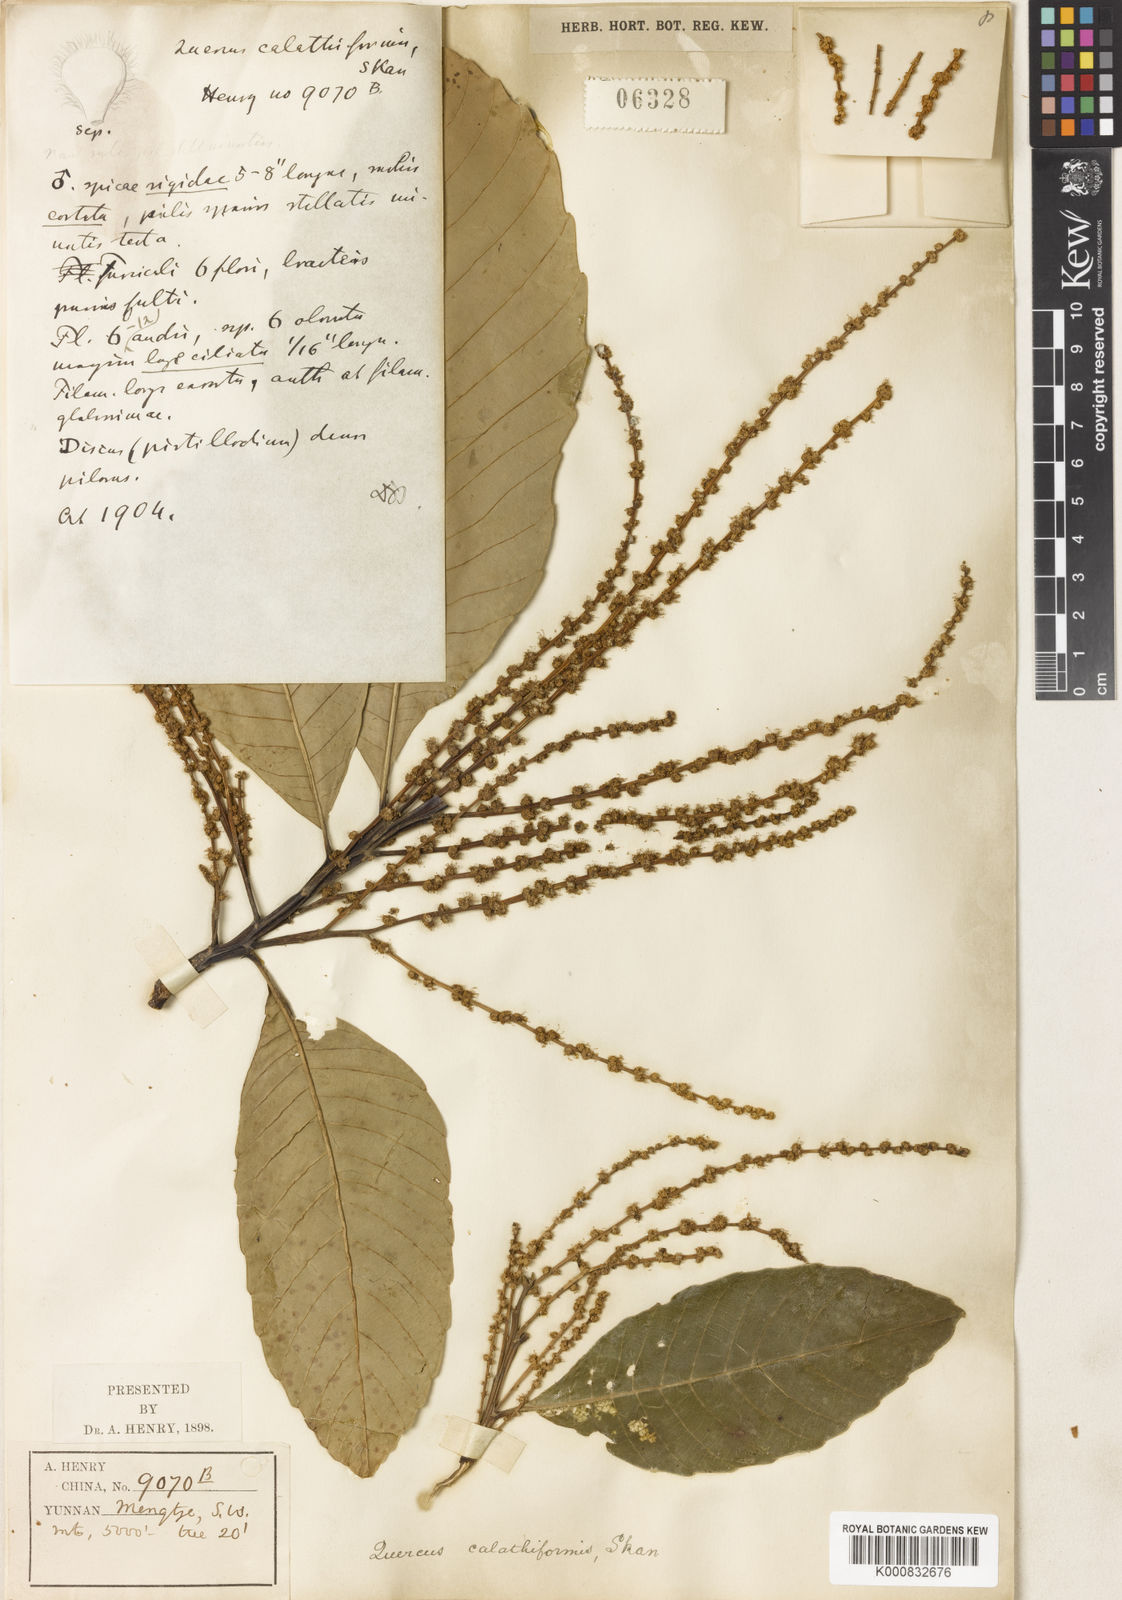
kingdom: Plantae
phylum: Tracheophyta
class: Magnoliopsida
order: Fagales
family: Fagaceae
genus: Castanopsis
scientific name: Castanopsis calathiformis
